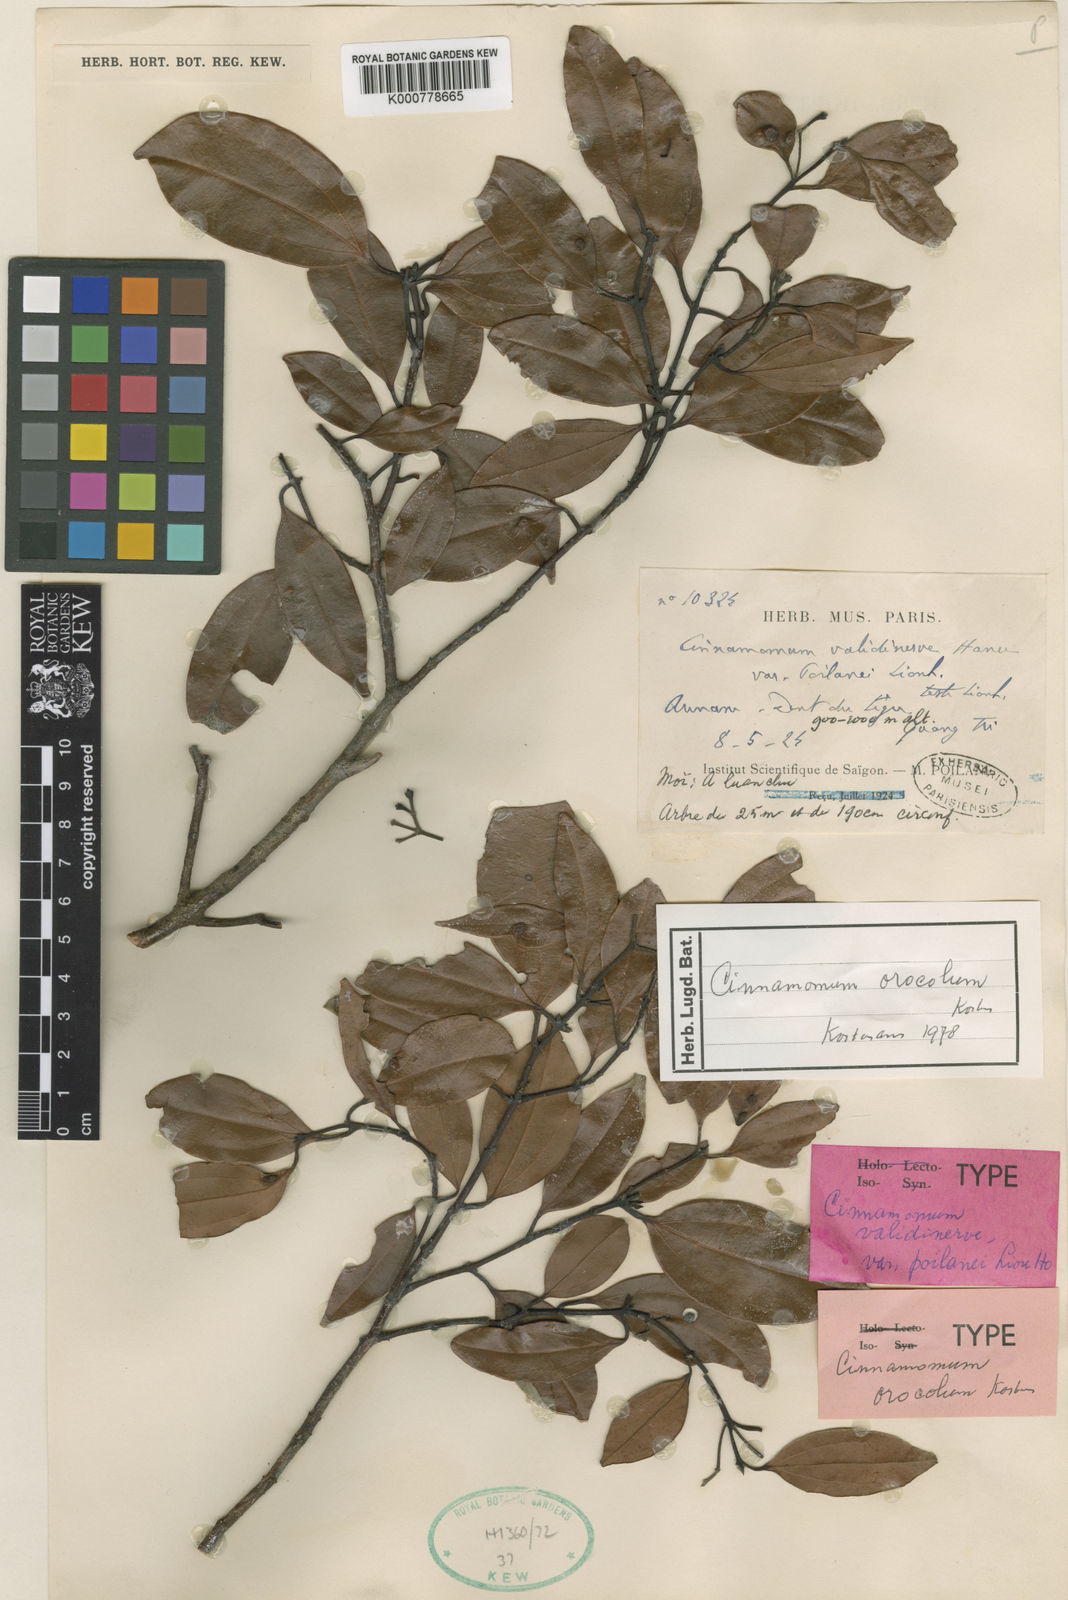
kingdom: Plantae
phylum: Tracheophyta
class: Magnoliopsida
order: Laurales
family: Lauraceae
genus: Cinnamomum
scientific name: Cinnamomum
